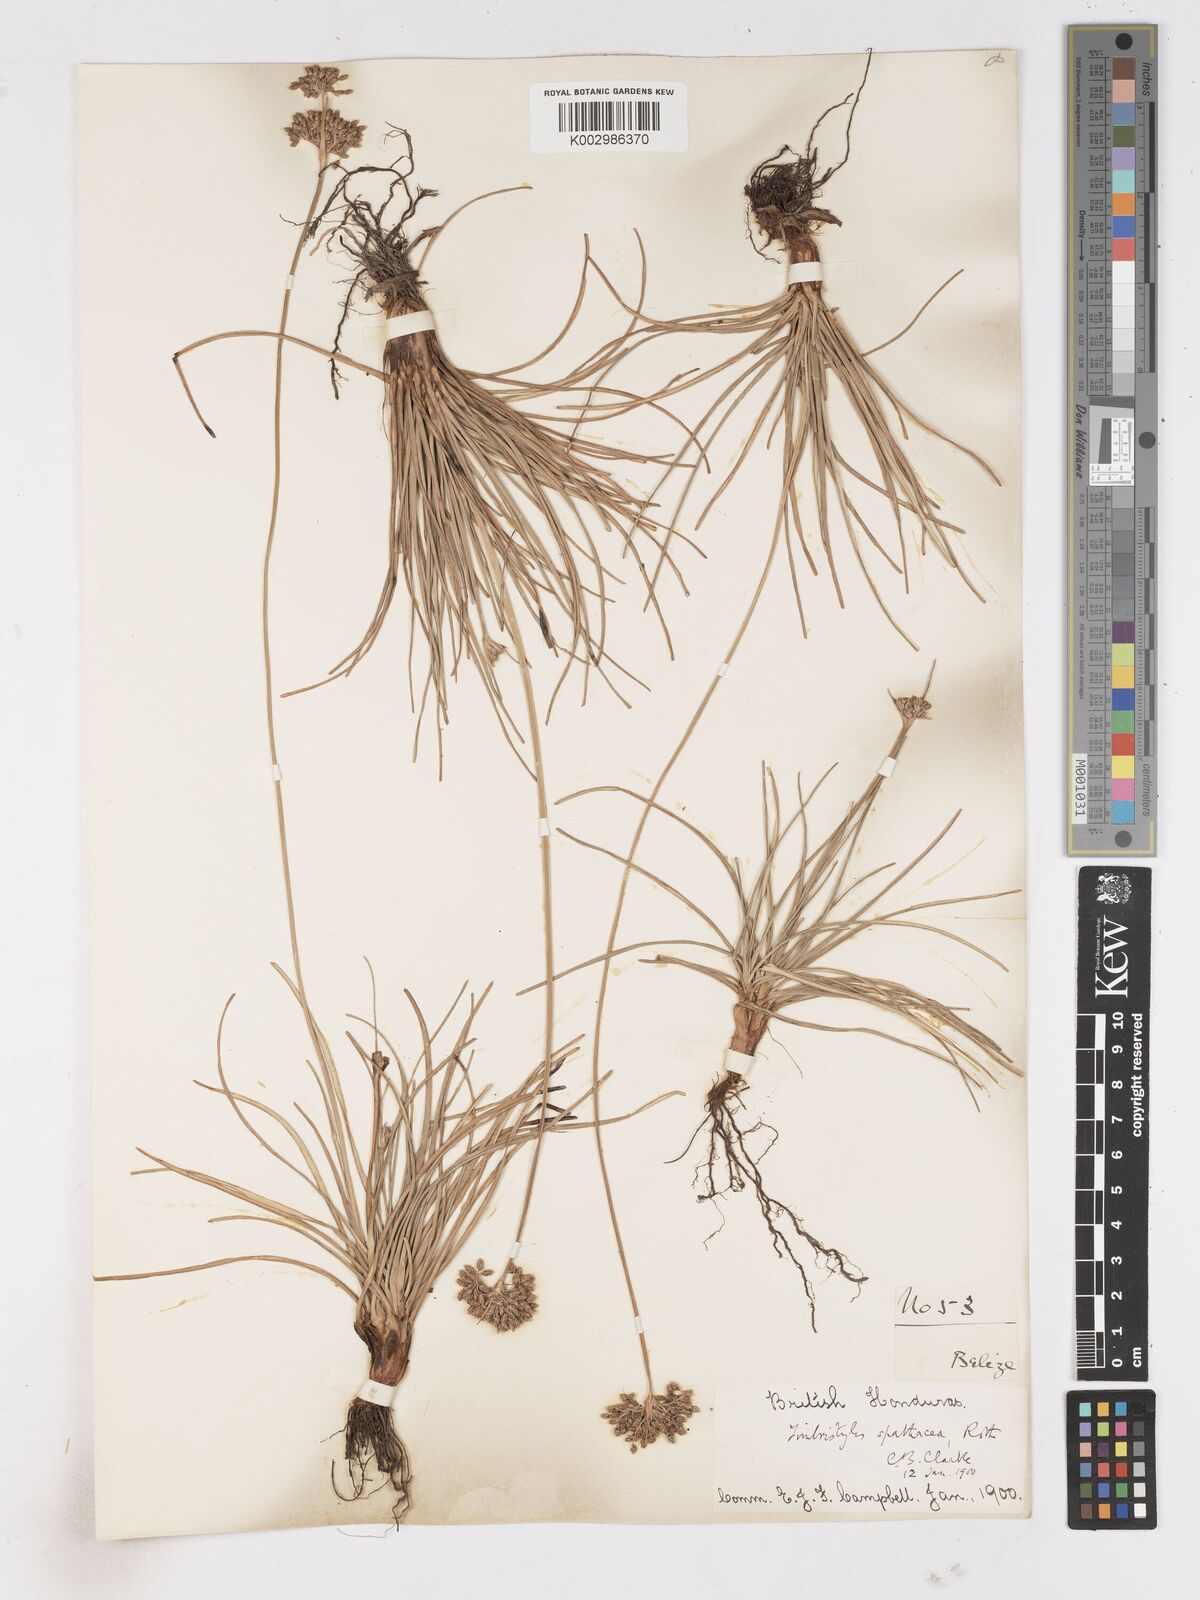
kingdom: Plantae
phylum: Tracheophyta
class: Liliopsida
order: Poales
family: Cyperaceae
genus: Fimbristylis
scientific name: Fimbristylis cymosa
